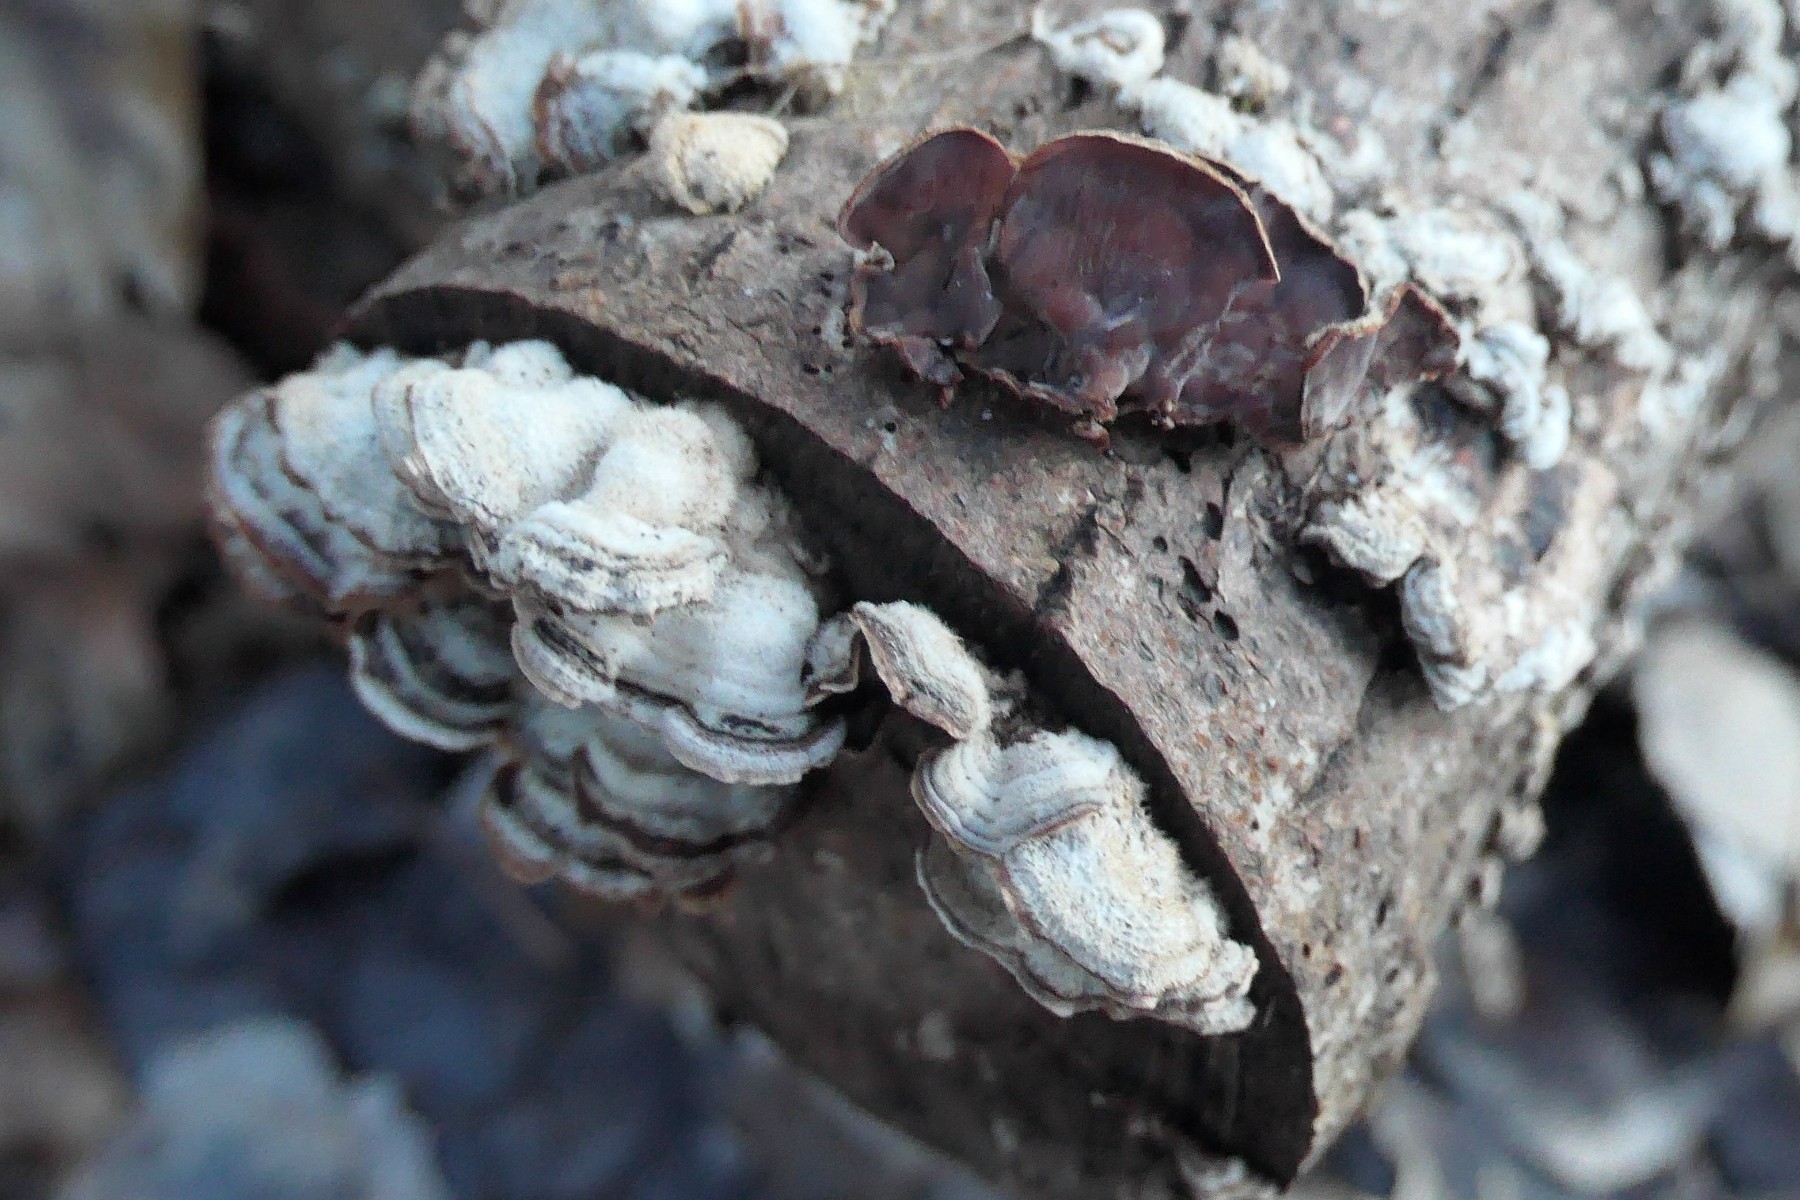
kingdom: Fungi
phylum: Basidiomycota
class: Agaricomycetes
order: Agaricales
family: Cyphellaceae
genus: Chondrostereum
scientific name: Chondrostereum purpureum
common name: purpurlædersvamp
